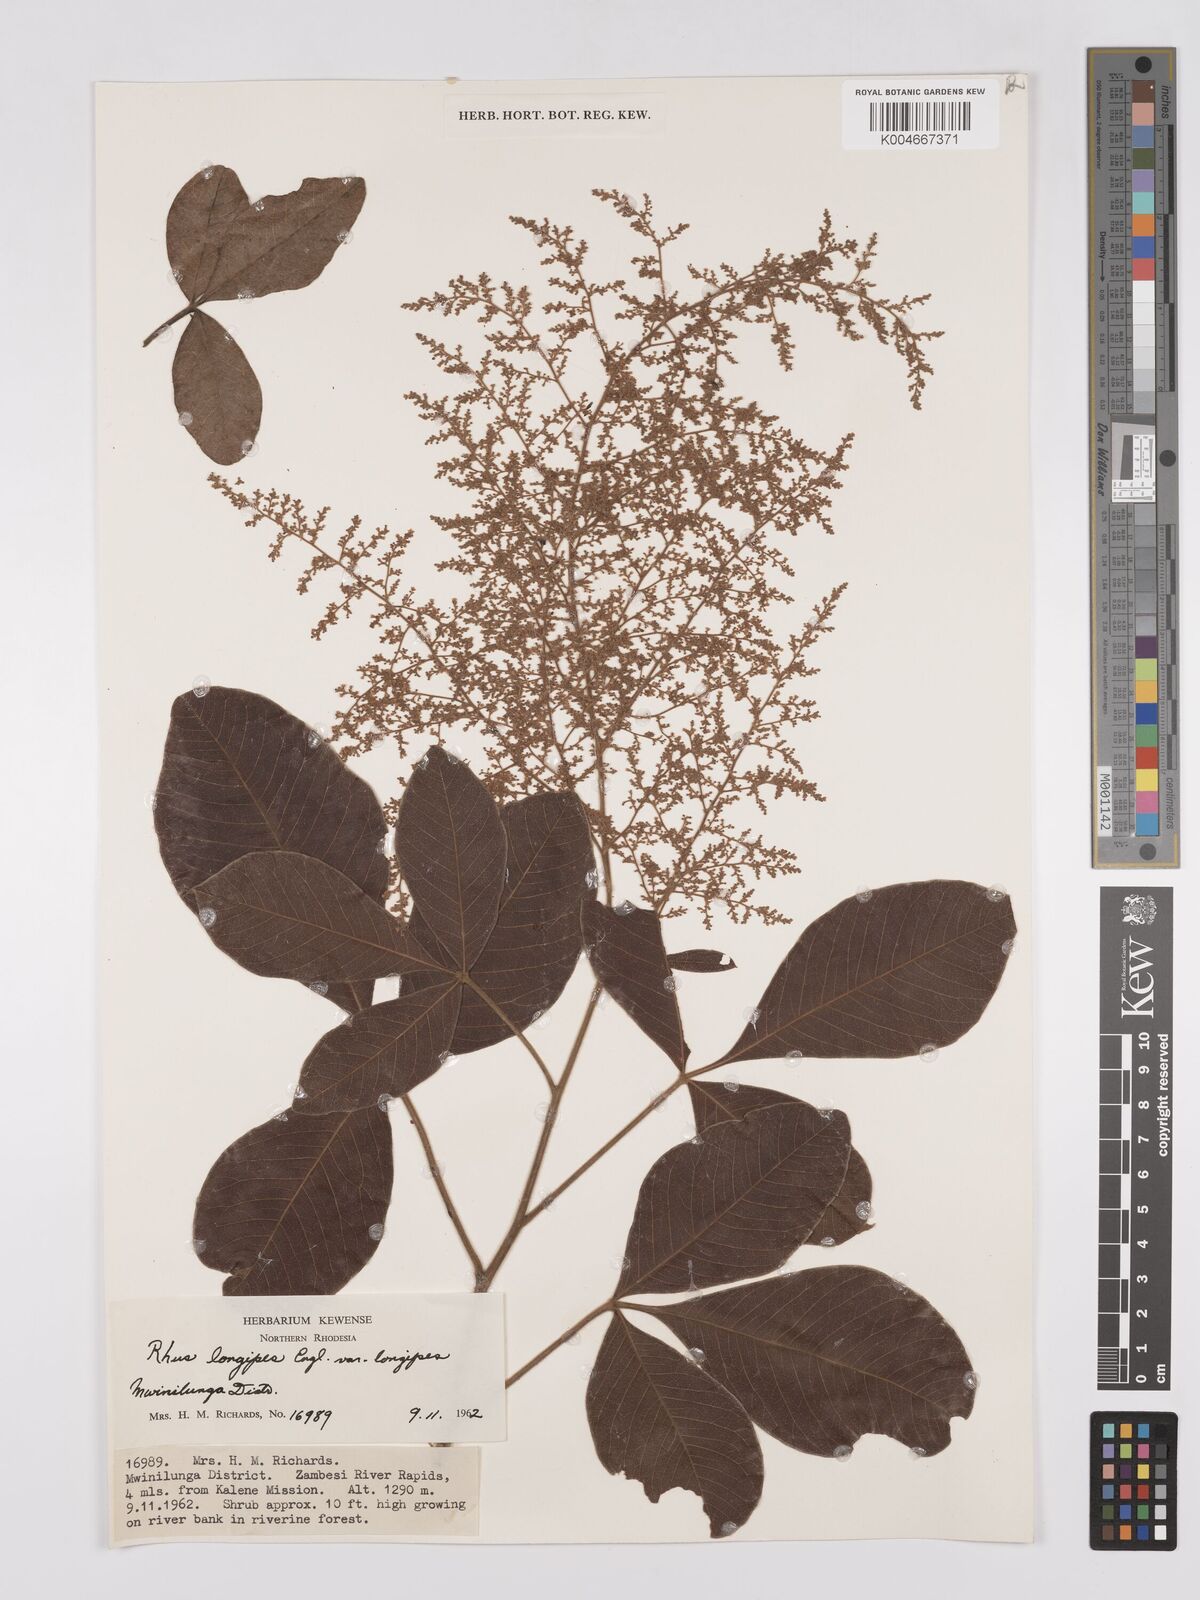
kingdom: Plantae
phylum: Tracheophyta
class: Magnoliopsida
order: Sapindales
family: Anacardiaceae
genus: Searsia
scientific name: Searsia longipes
